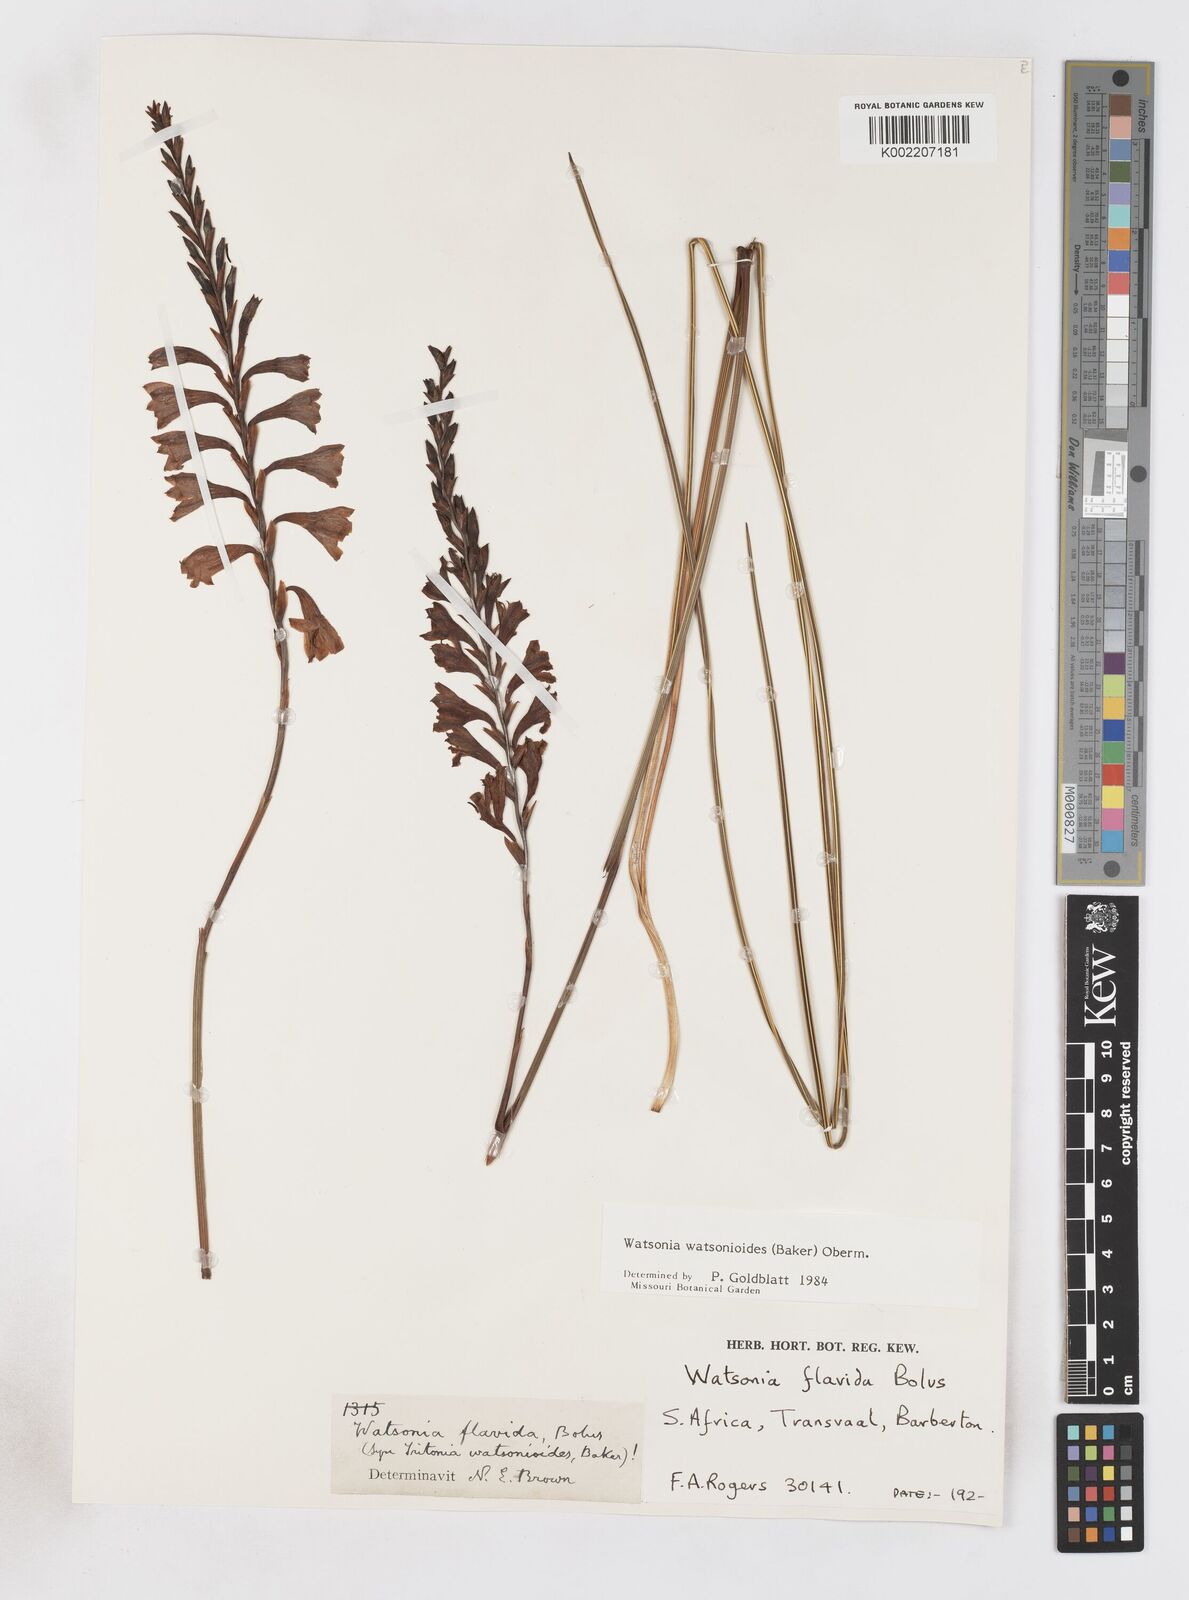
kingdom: Plantae
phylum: Tracheophyta
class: Liliopsida
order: Asparagales
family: Iridaceae
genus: Watsonia
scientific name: Watsonia watsonioides
